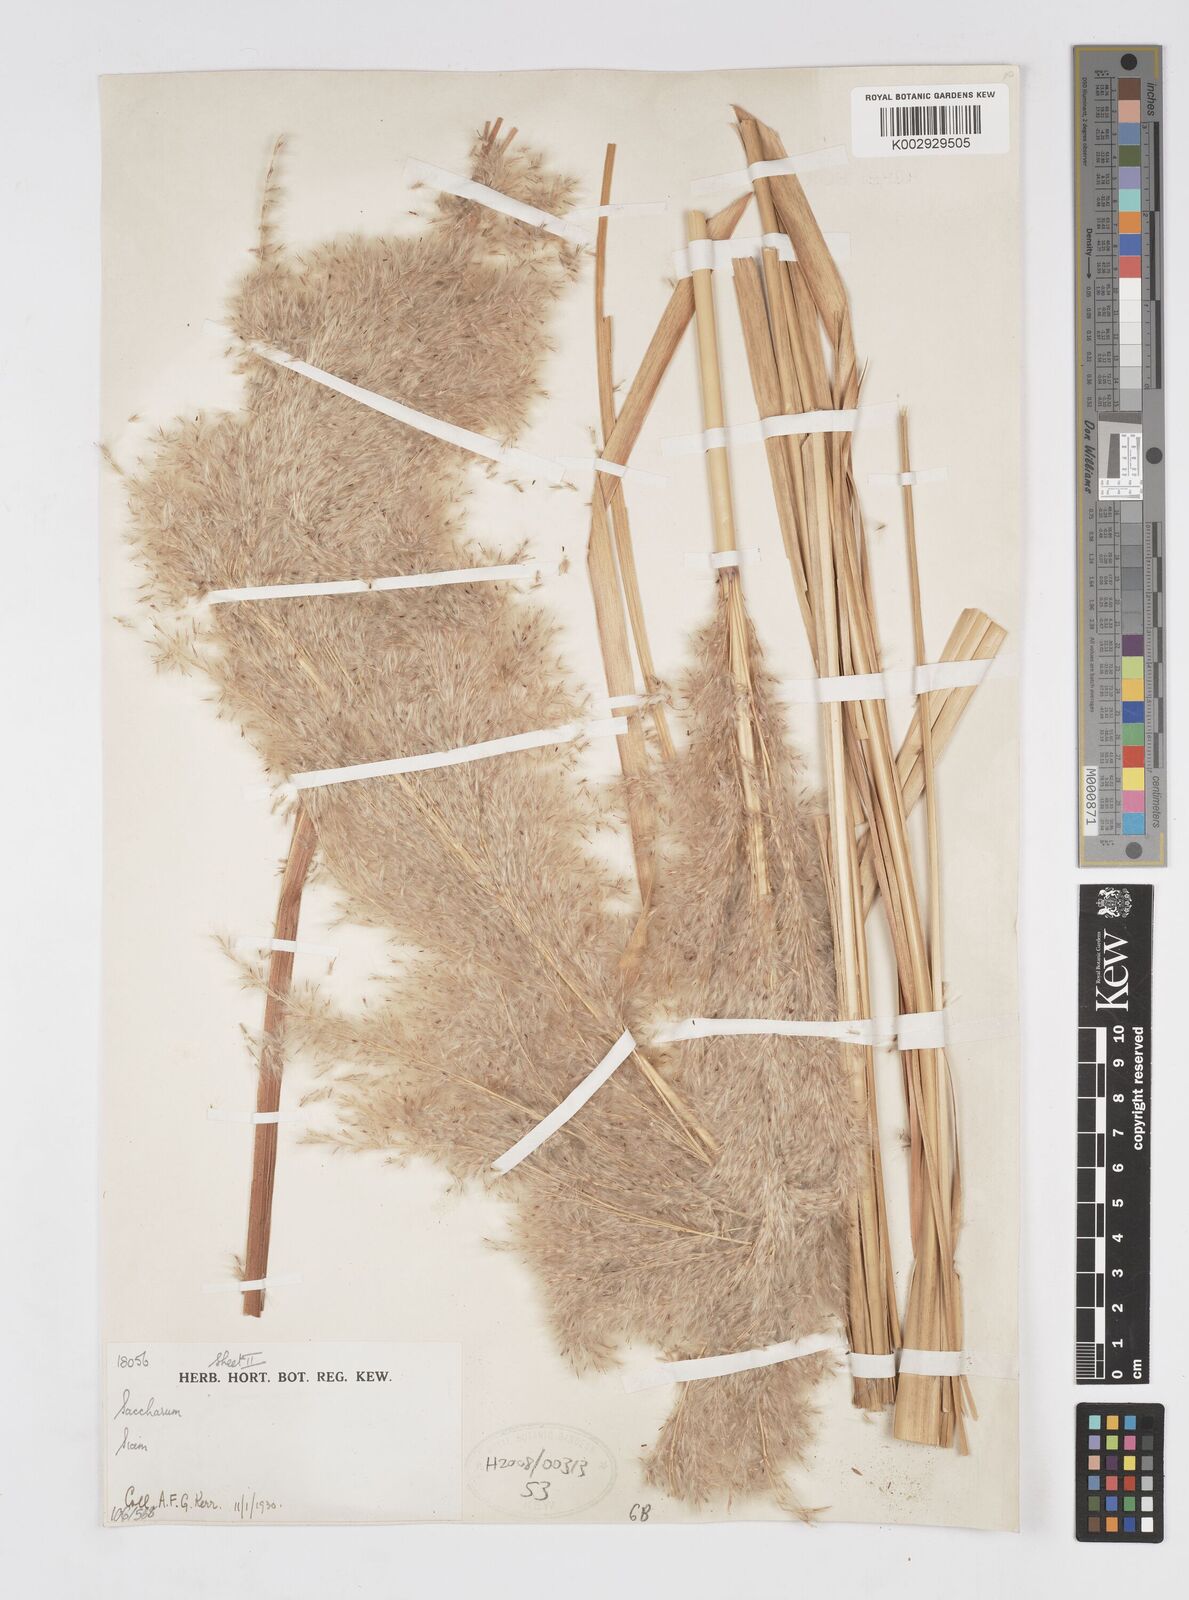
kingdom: Plantae
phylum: Tracheophyta
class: Liliopsida
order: Poales
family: Poaceae
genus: Saccharum
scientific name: Saccharum
